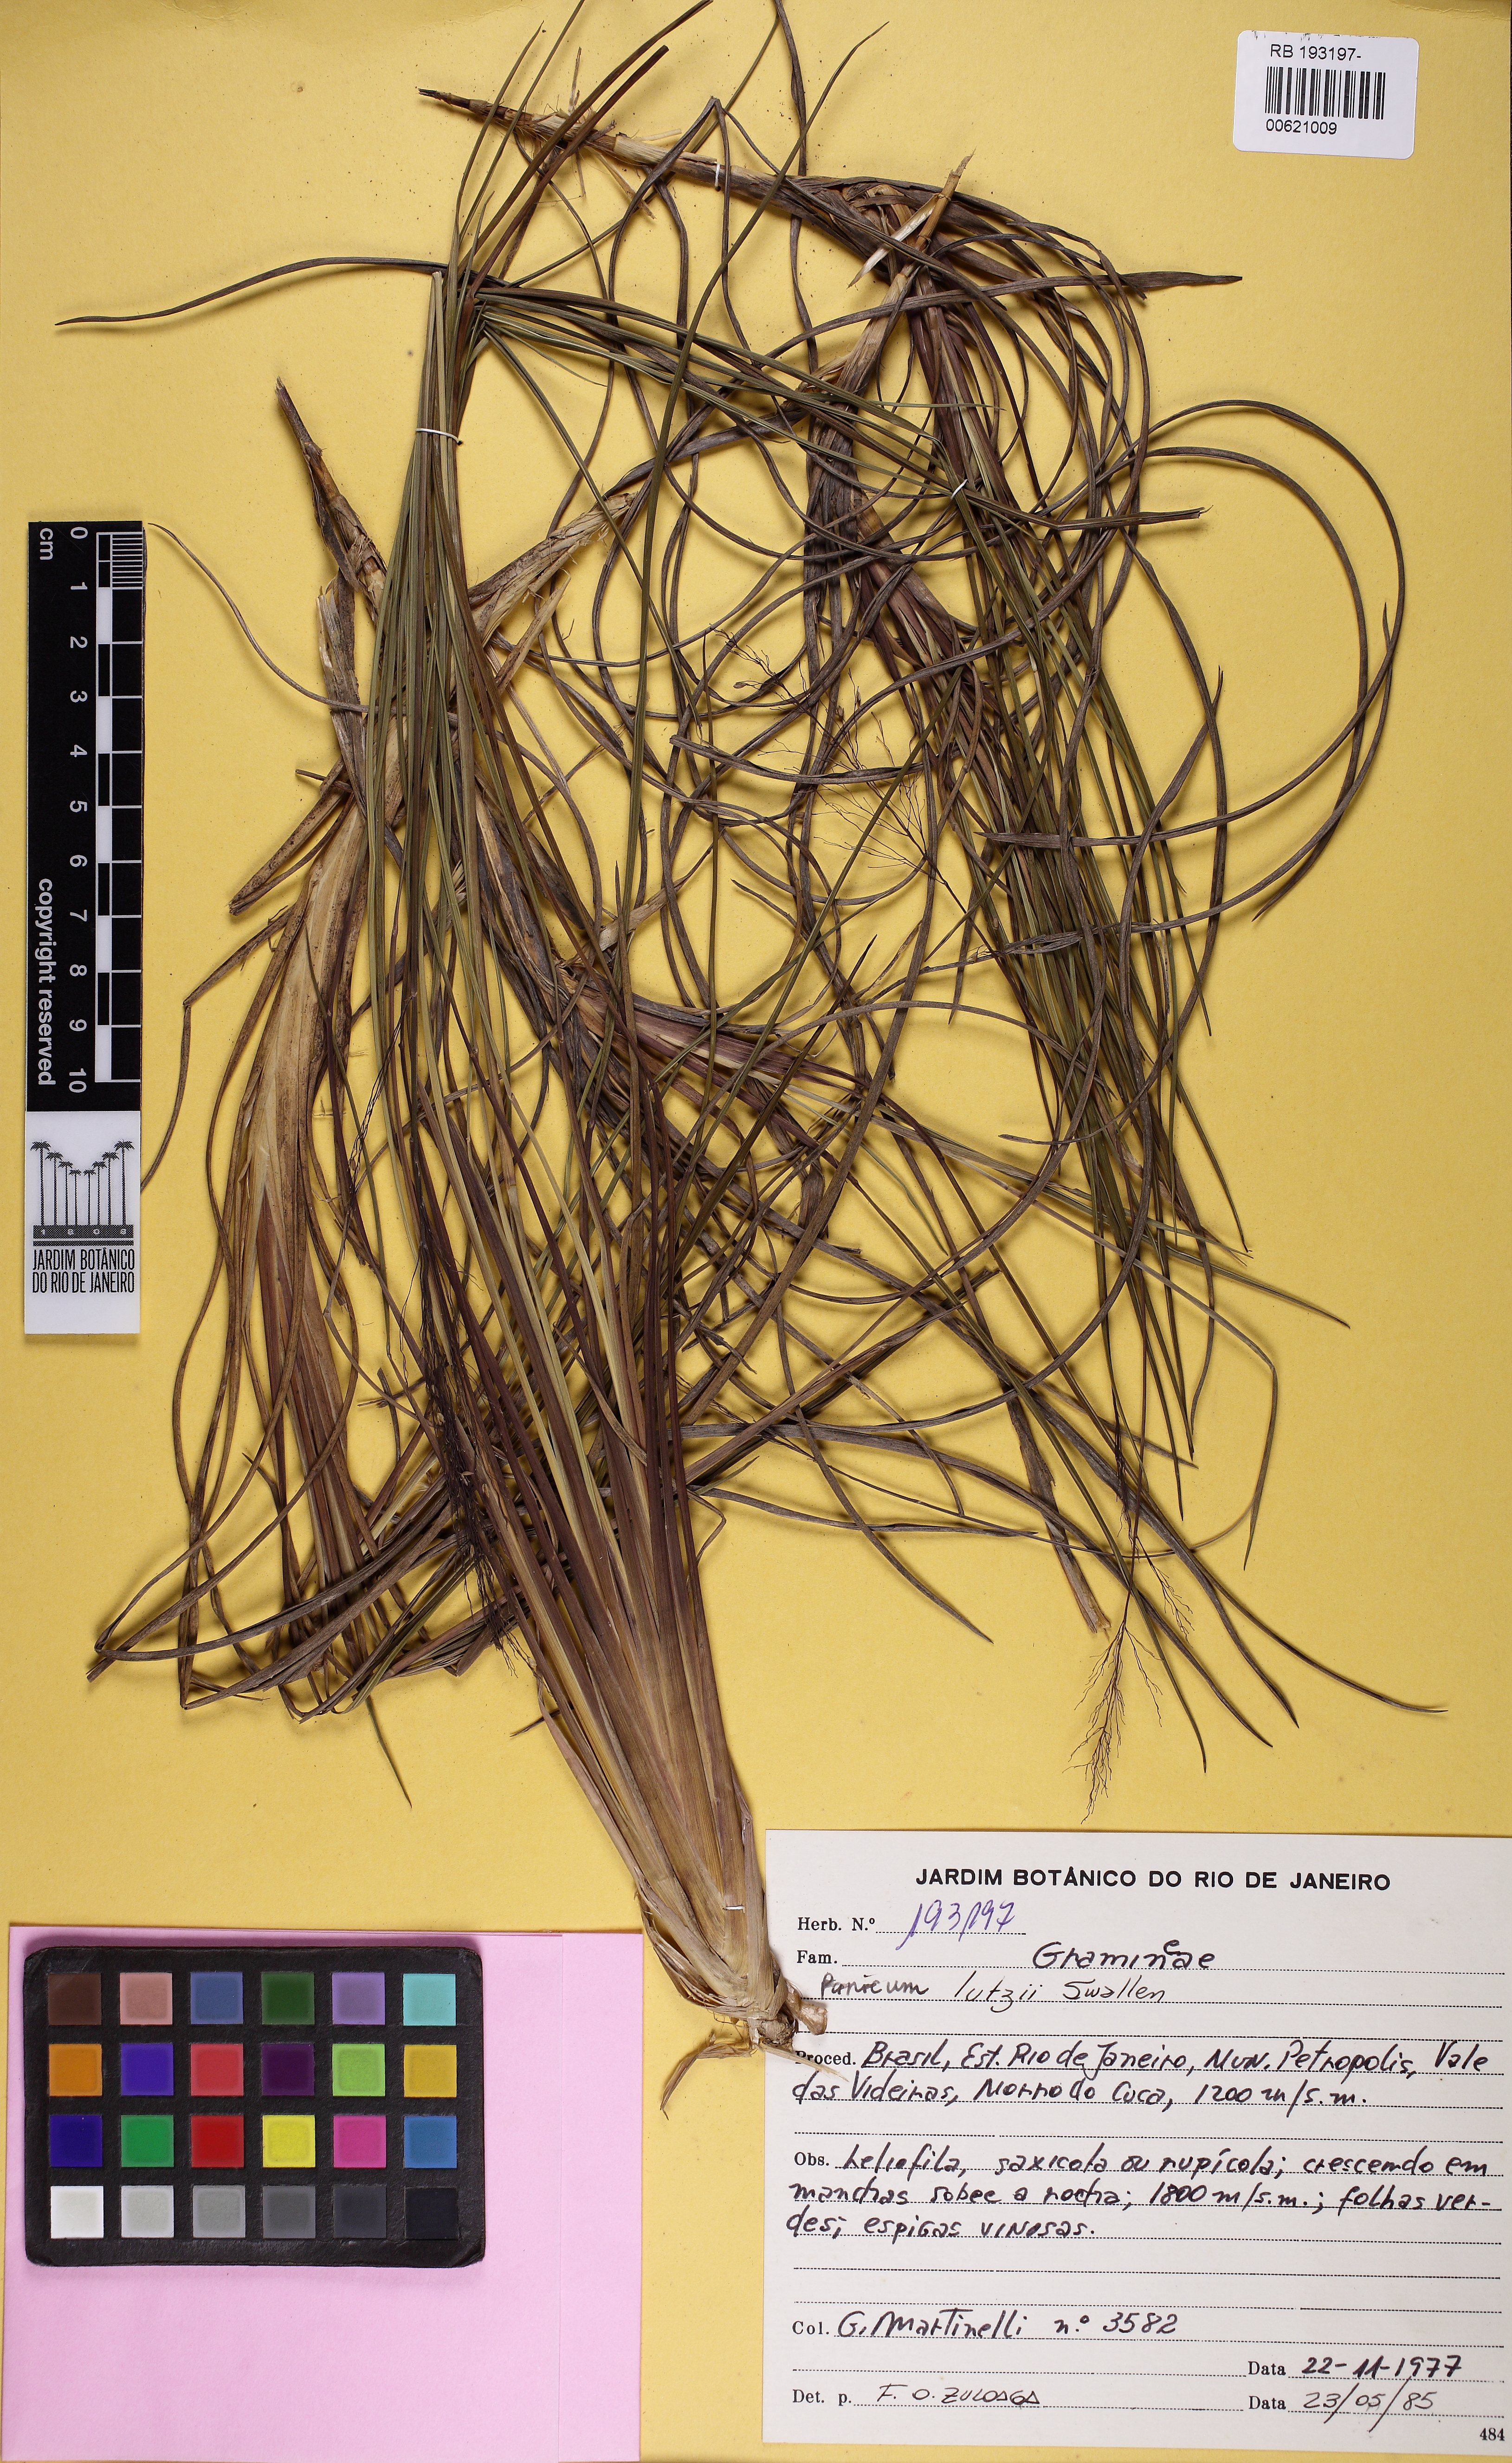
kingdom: Plantae
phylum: Tracheophyta
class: Liliopsida
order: Poales
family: Poaceae
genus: Apochloa
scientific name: Apochloa lutzii
